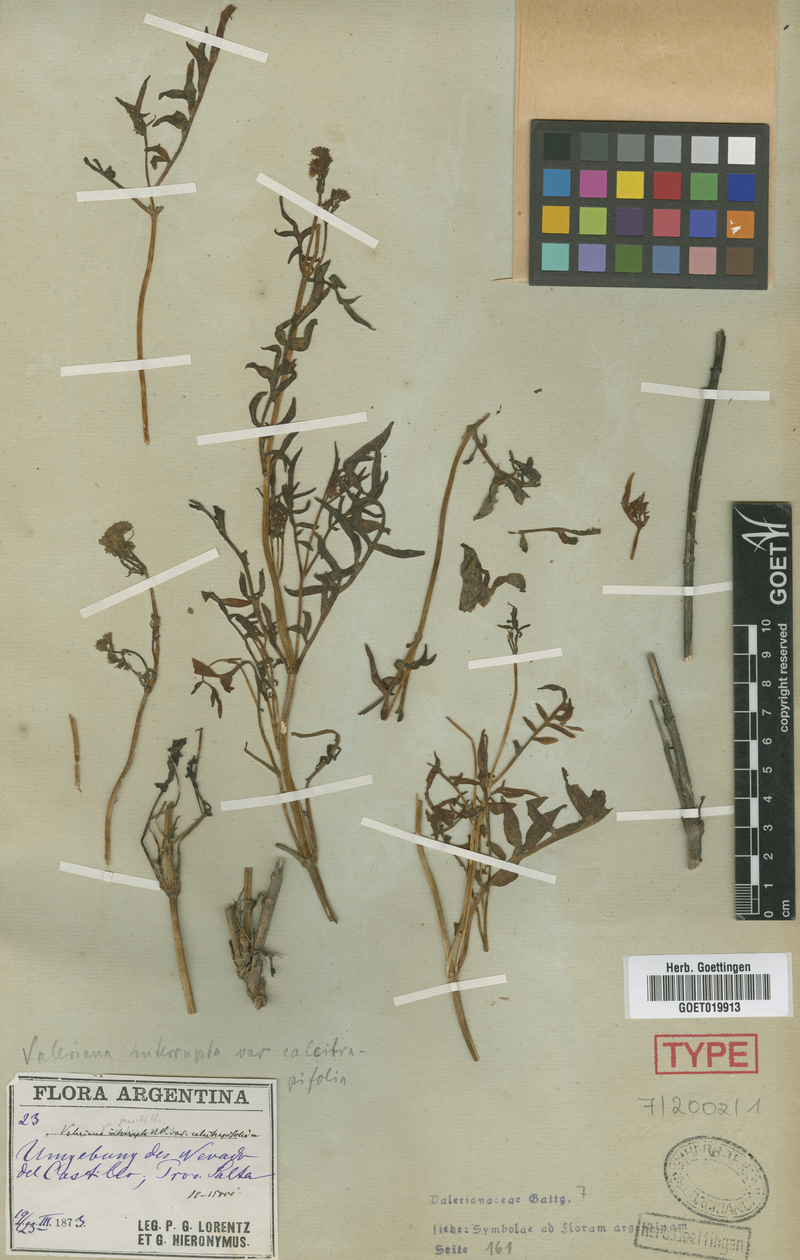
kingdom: Plantae
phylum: Tracheophyta
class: Magnoliopsida
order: Dipsacales
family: Caprifoliaceae
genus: Valeriana
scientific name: Valeriana calvescens
